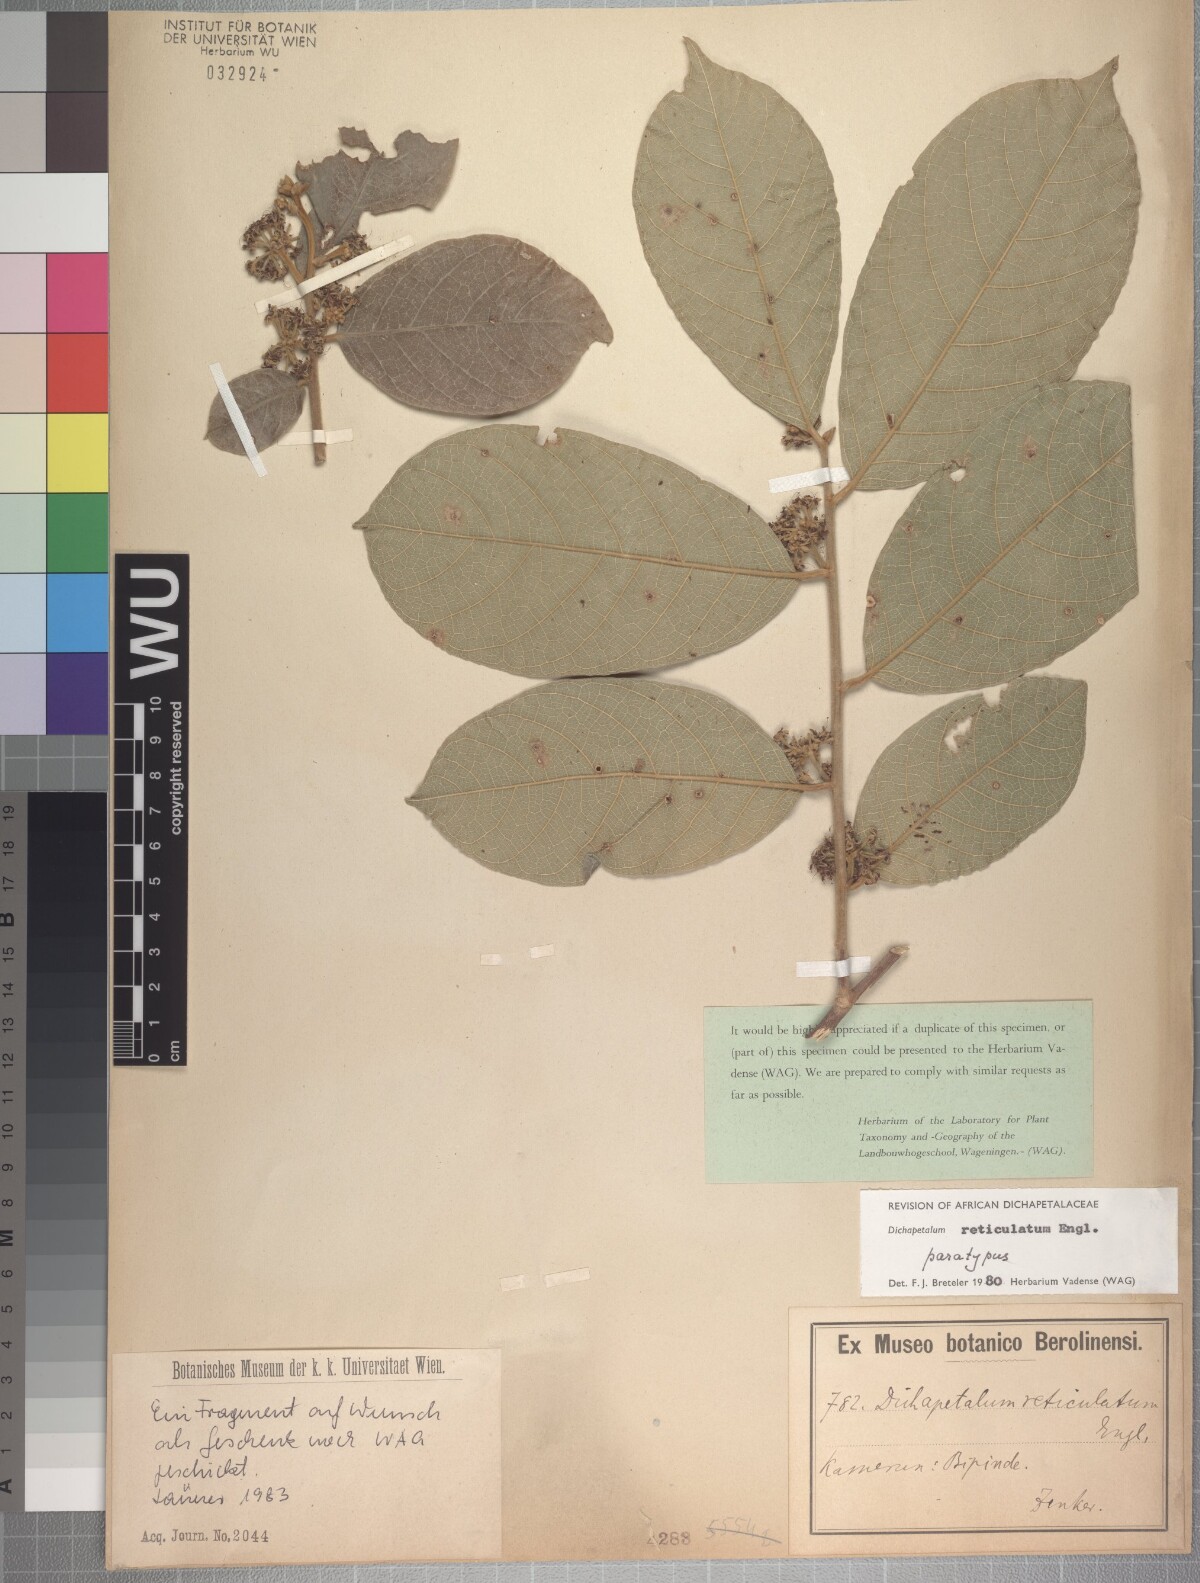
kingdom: Plantae
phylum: Tracheophyta
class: Magnoliopsida
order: Malpighiales
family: Dichapetalaceae
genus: Dichapetalum
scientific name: Dichapetalum reticulatum
